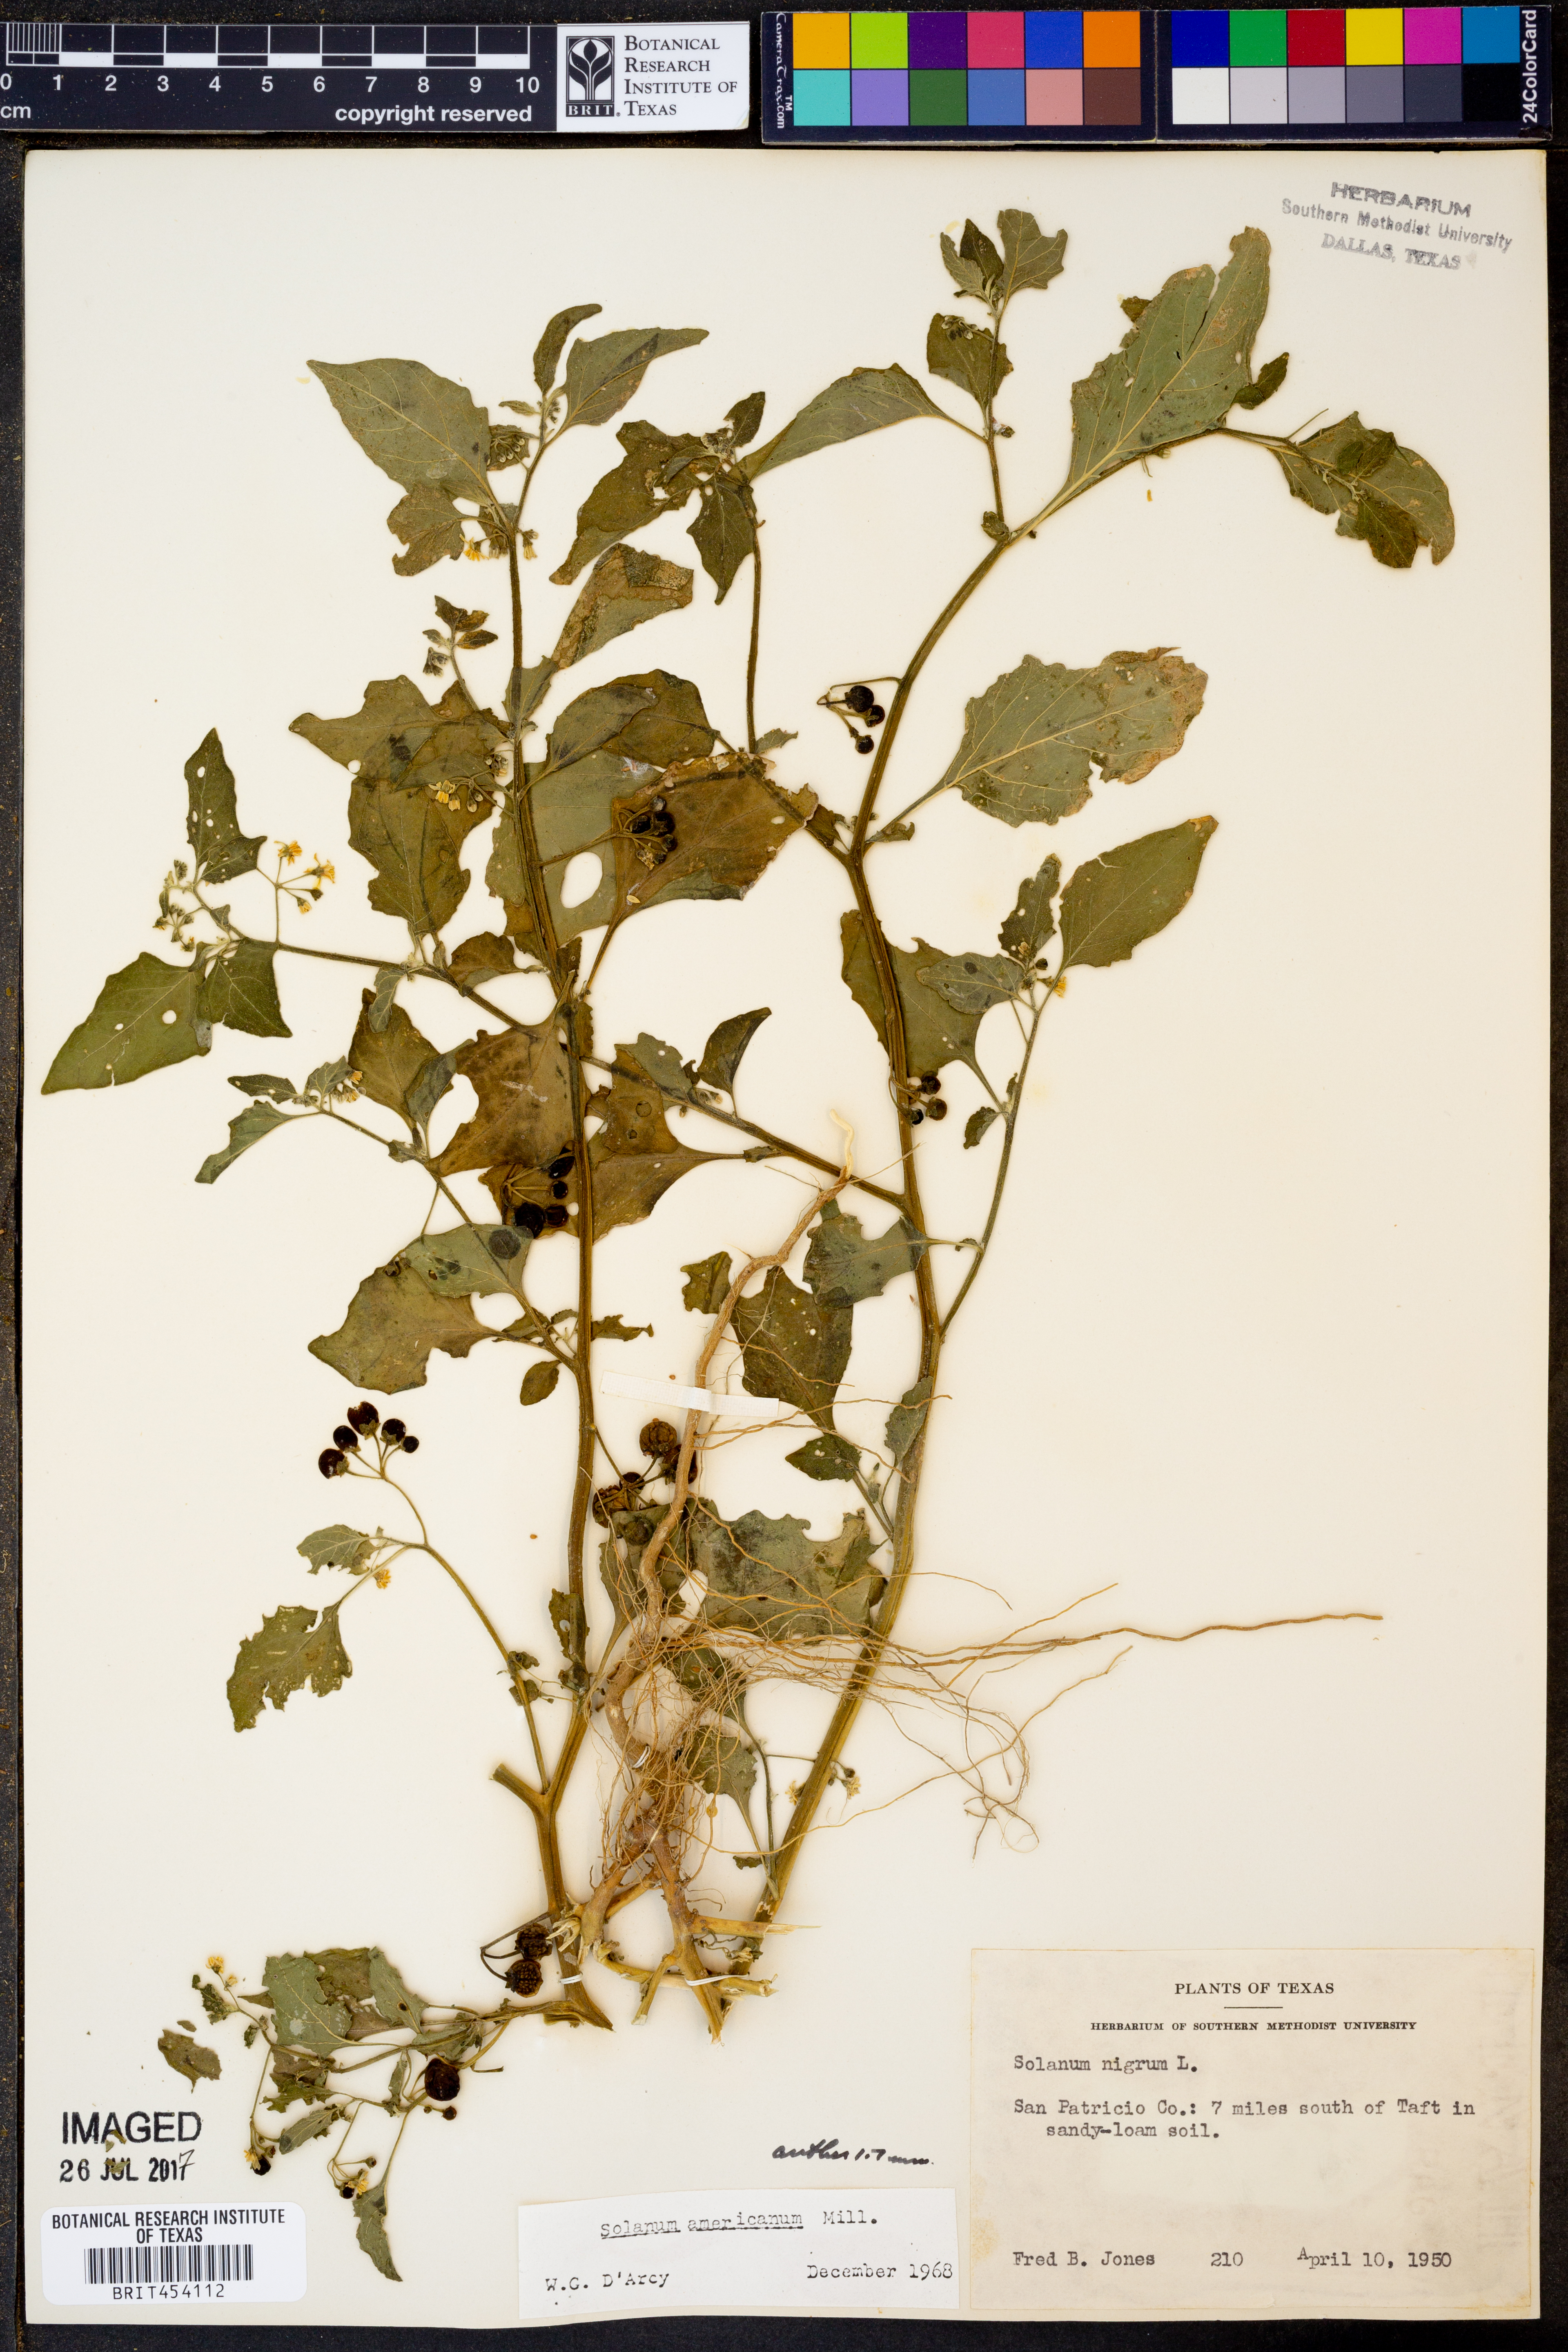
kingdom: Plantae
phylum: Tracheophyta
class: Magnoliopsida
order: Solanales
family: Solanaceae
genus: Solanum
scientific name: Solanum americanum
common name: American black nightshade
